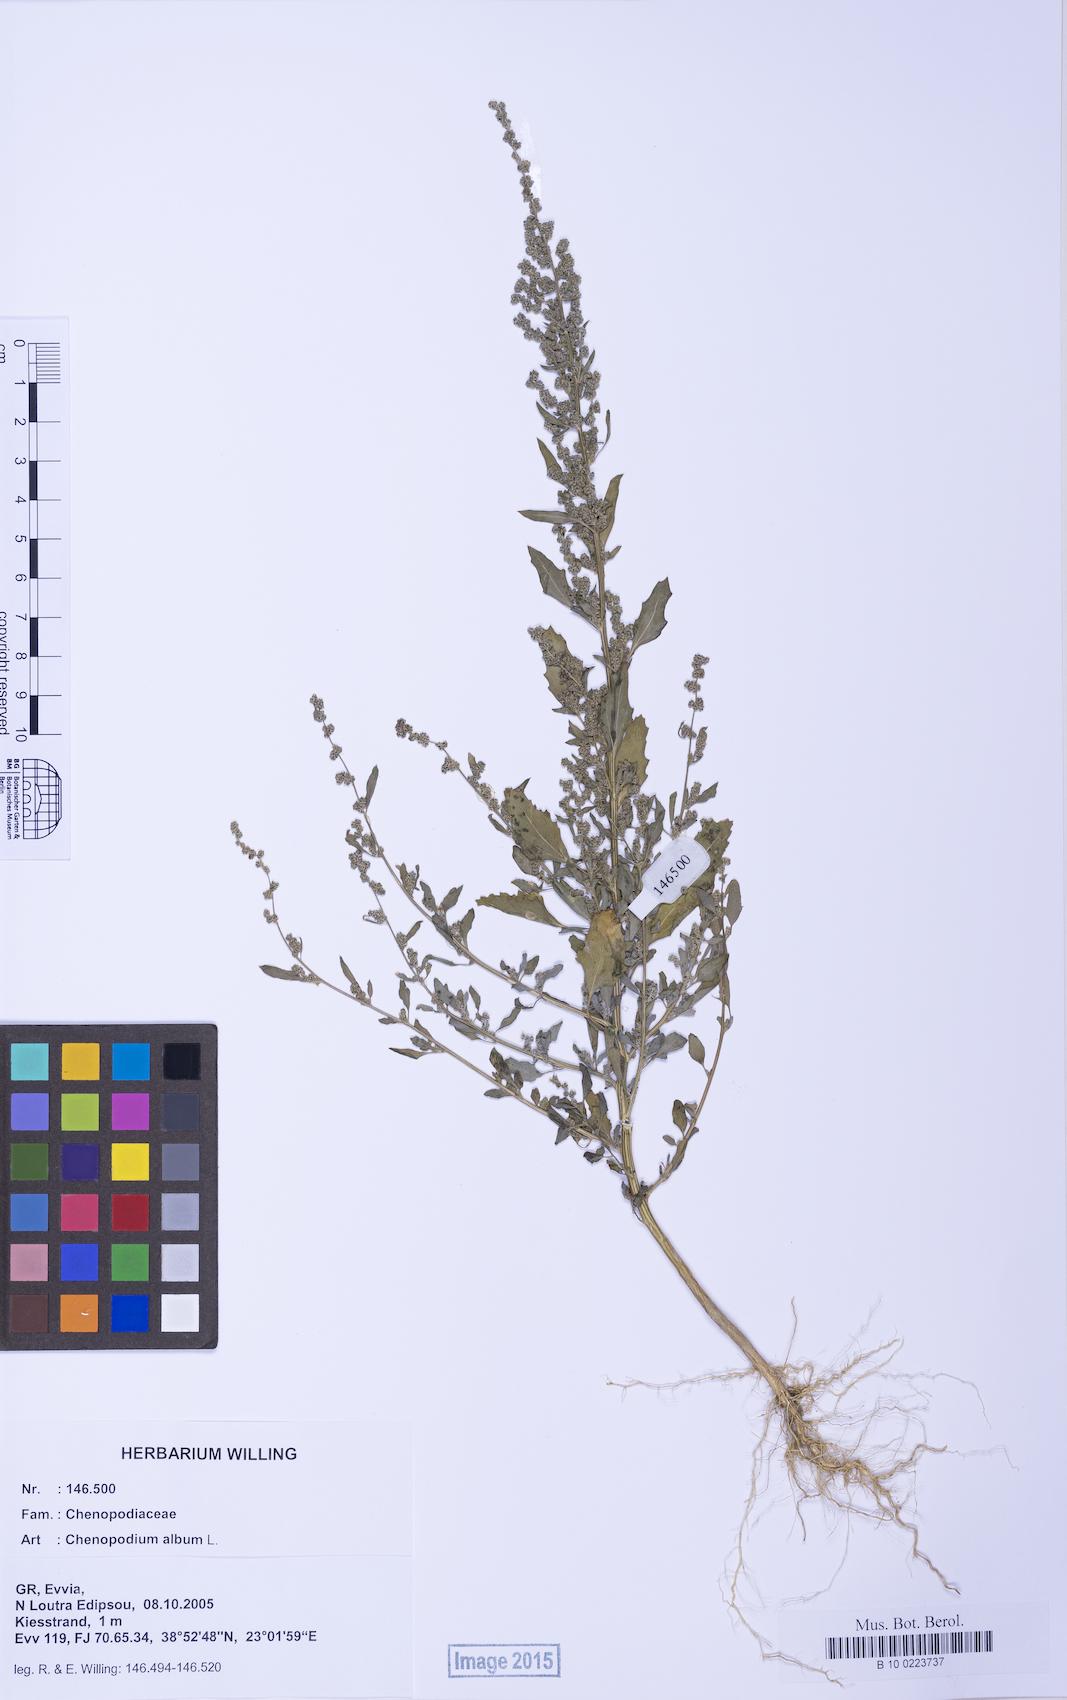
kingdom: Plantae
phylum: Tracheophyta
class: Magnoliopsida
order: Caryophyllales
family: Amaranthaceae
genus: Chenopodium
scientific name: Chenopodium album
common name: Fat-hen
